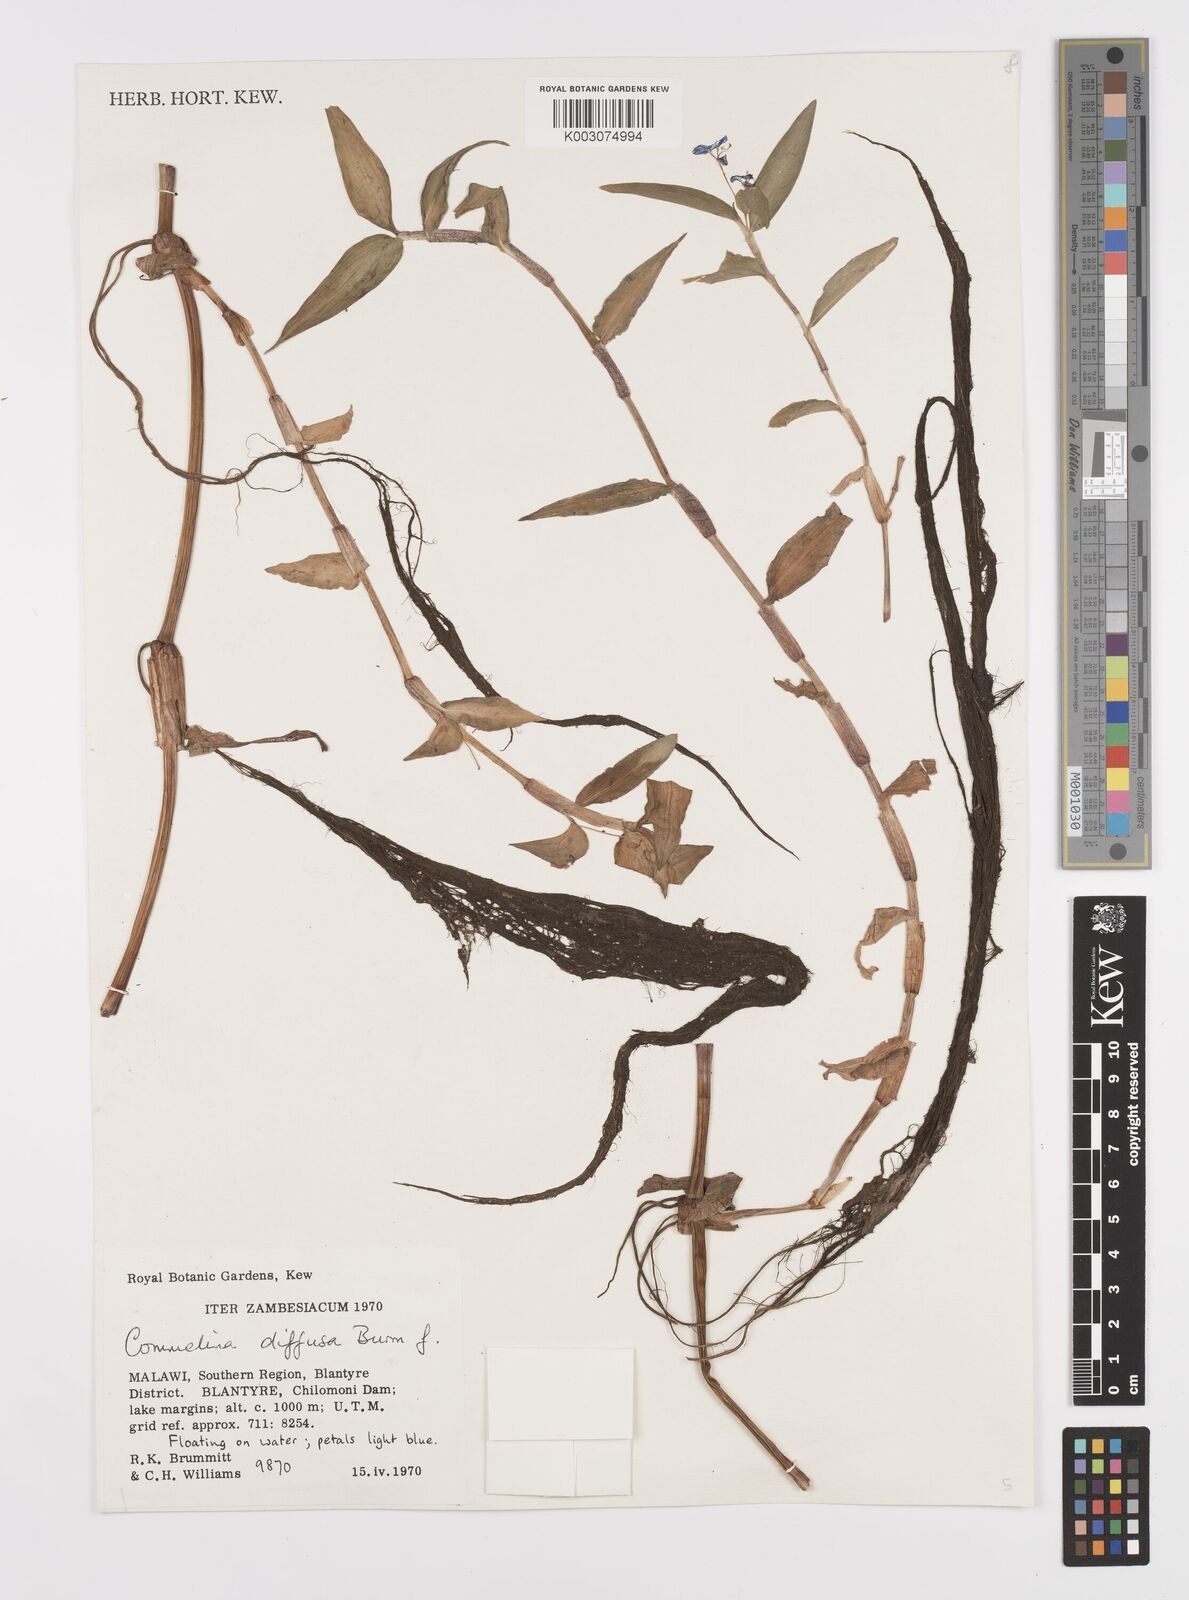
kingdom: Plantae
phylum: Tracheophyta
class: Liliopsida
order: Commelinales
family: Commelinaceae
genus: Commelina
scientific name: Commelina diffusa
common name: Climbing dayflower
